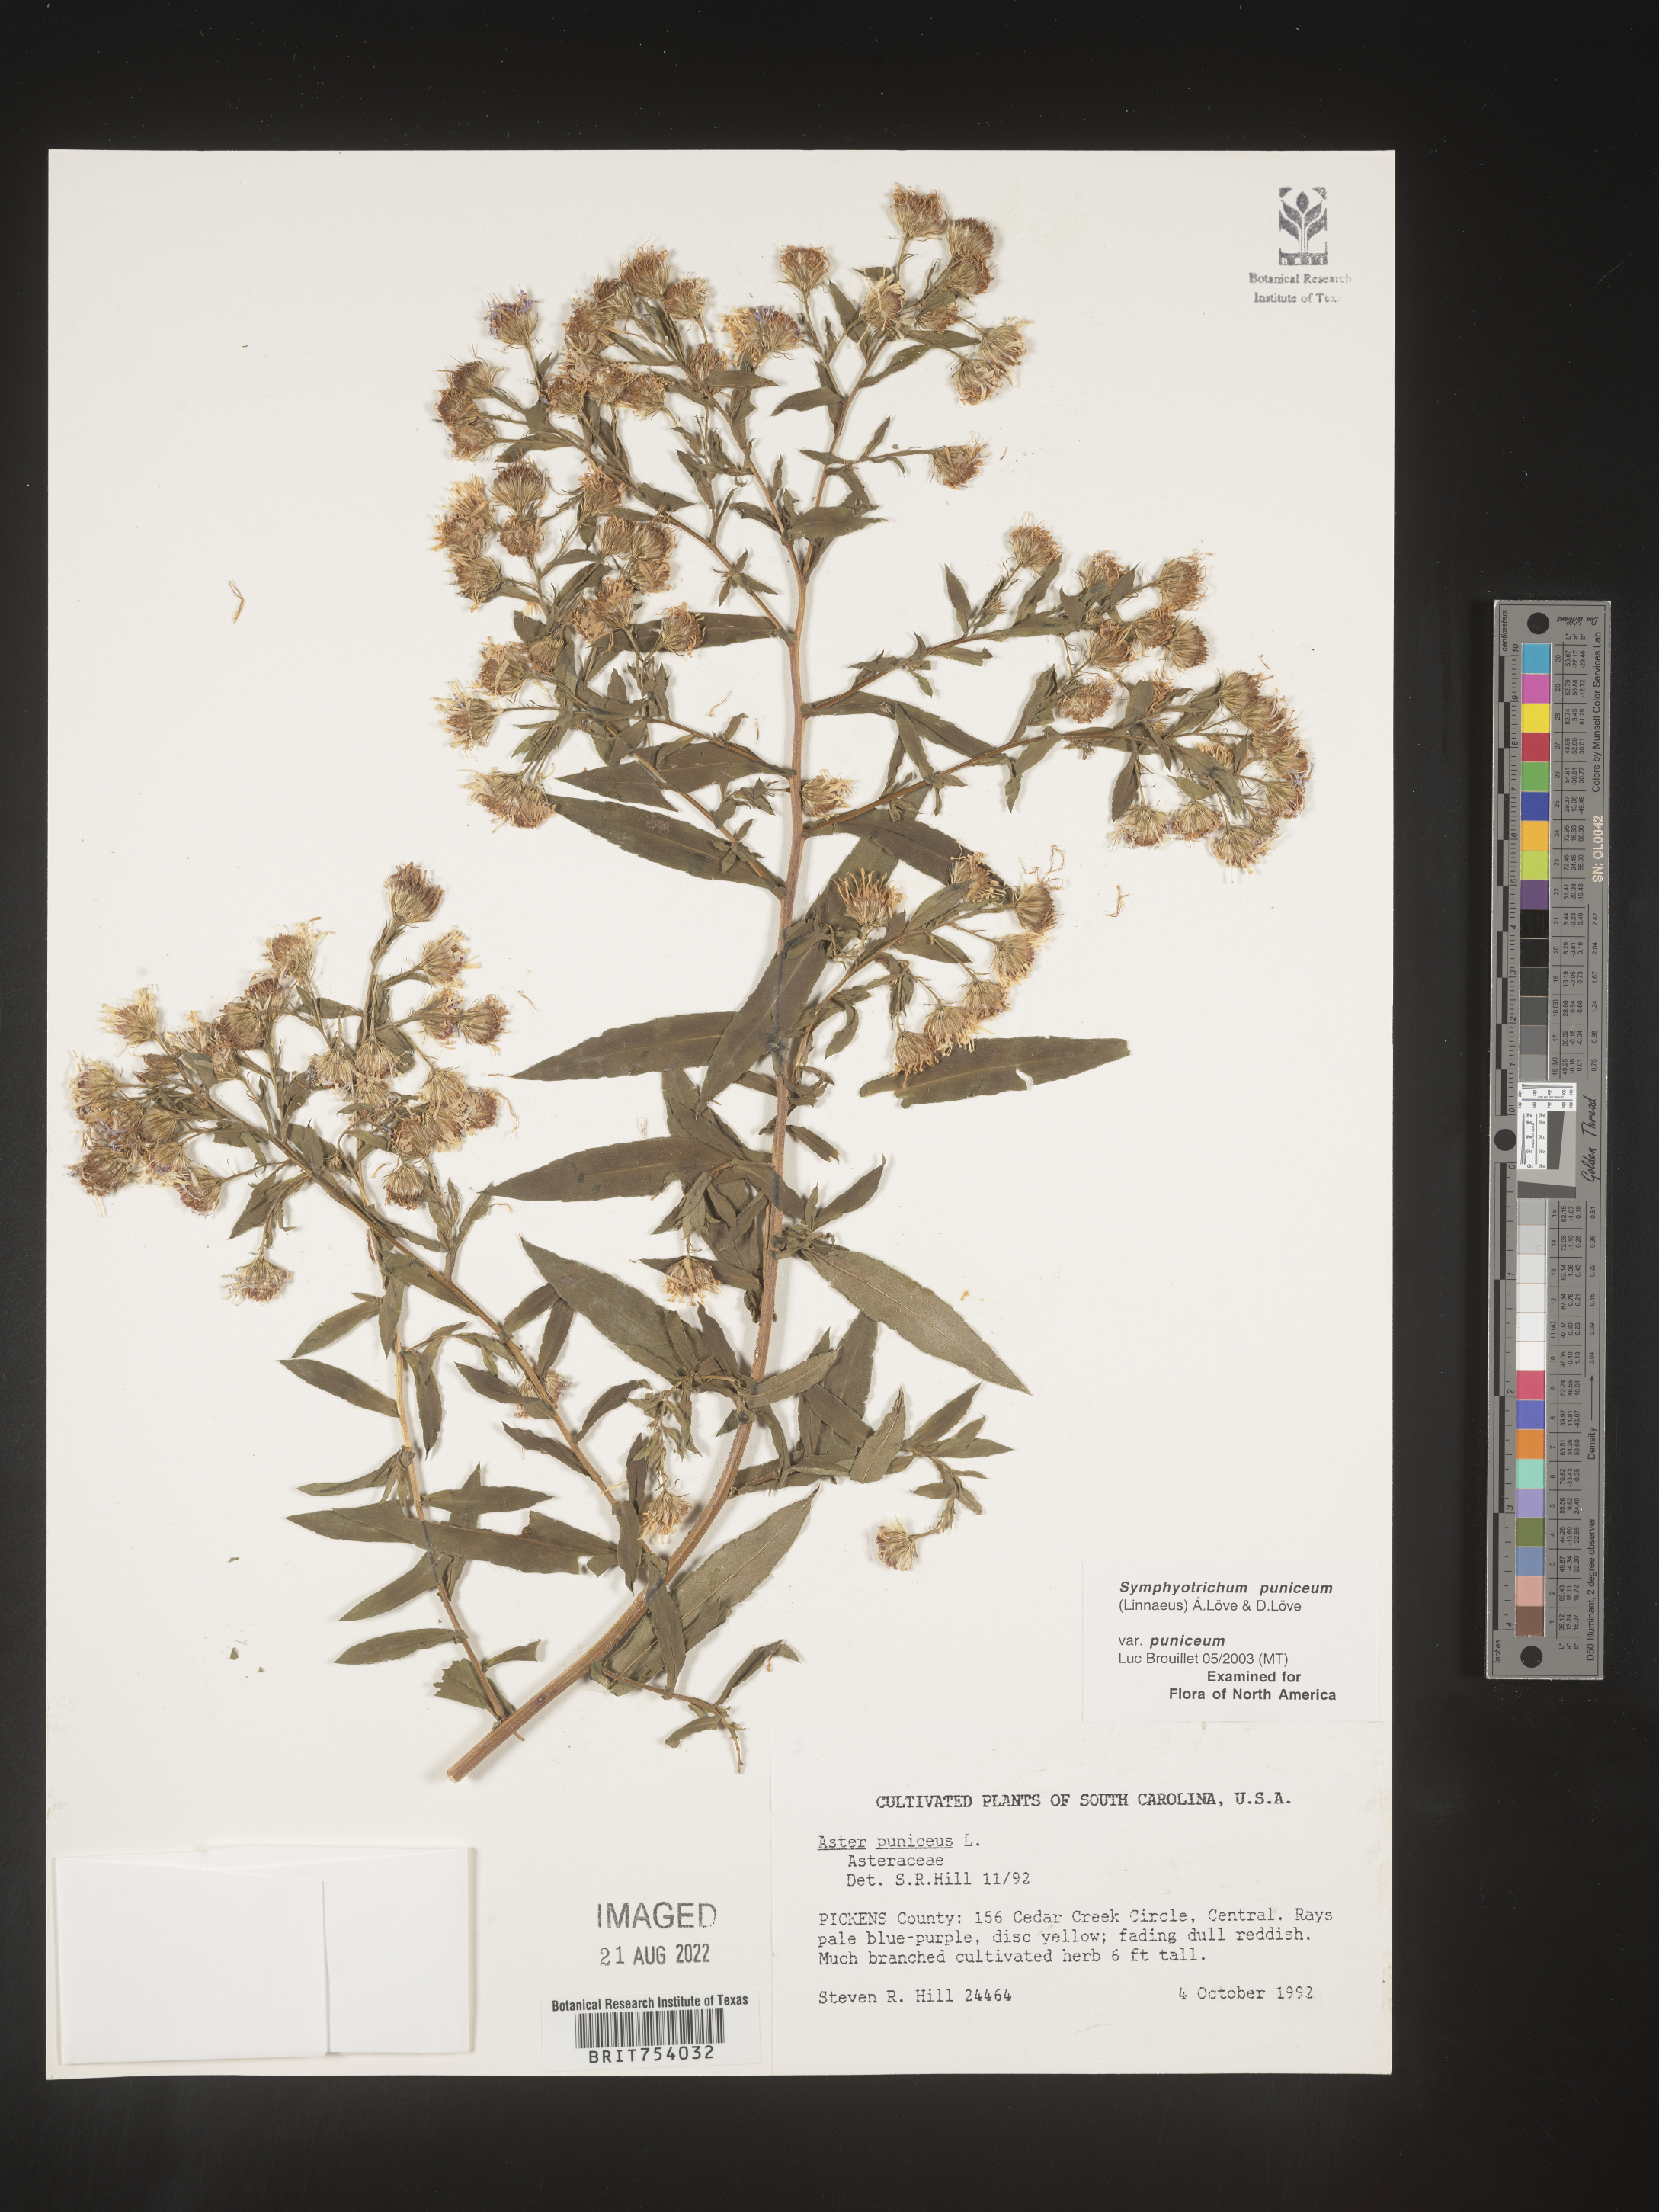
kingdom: Plantae
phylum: Tracheophyta
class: Magnoliopsida
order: Asterales
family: Asteraceae
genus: Symphyotrichum
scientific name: Symphyotrichum puniceum
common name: Bog aster
